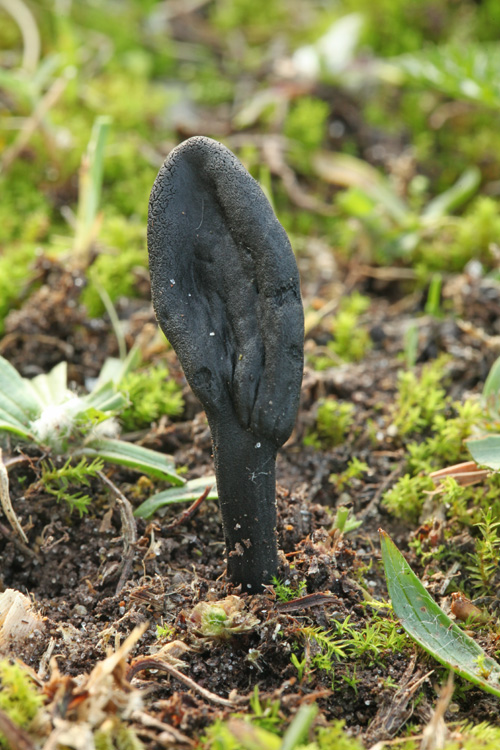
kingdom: Fungi
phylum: Ascomycota
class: Geoglossomycetes
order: Geoglossales
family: Geoglossaceae
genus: Geoglossum
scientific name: Geoglossum cookeianum
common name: bred jordtunge
